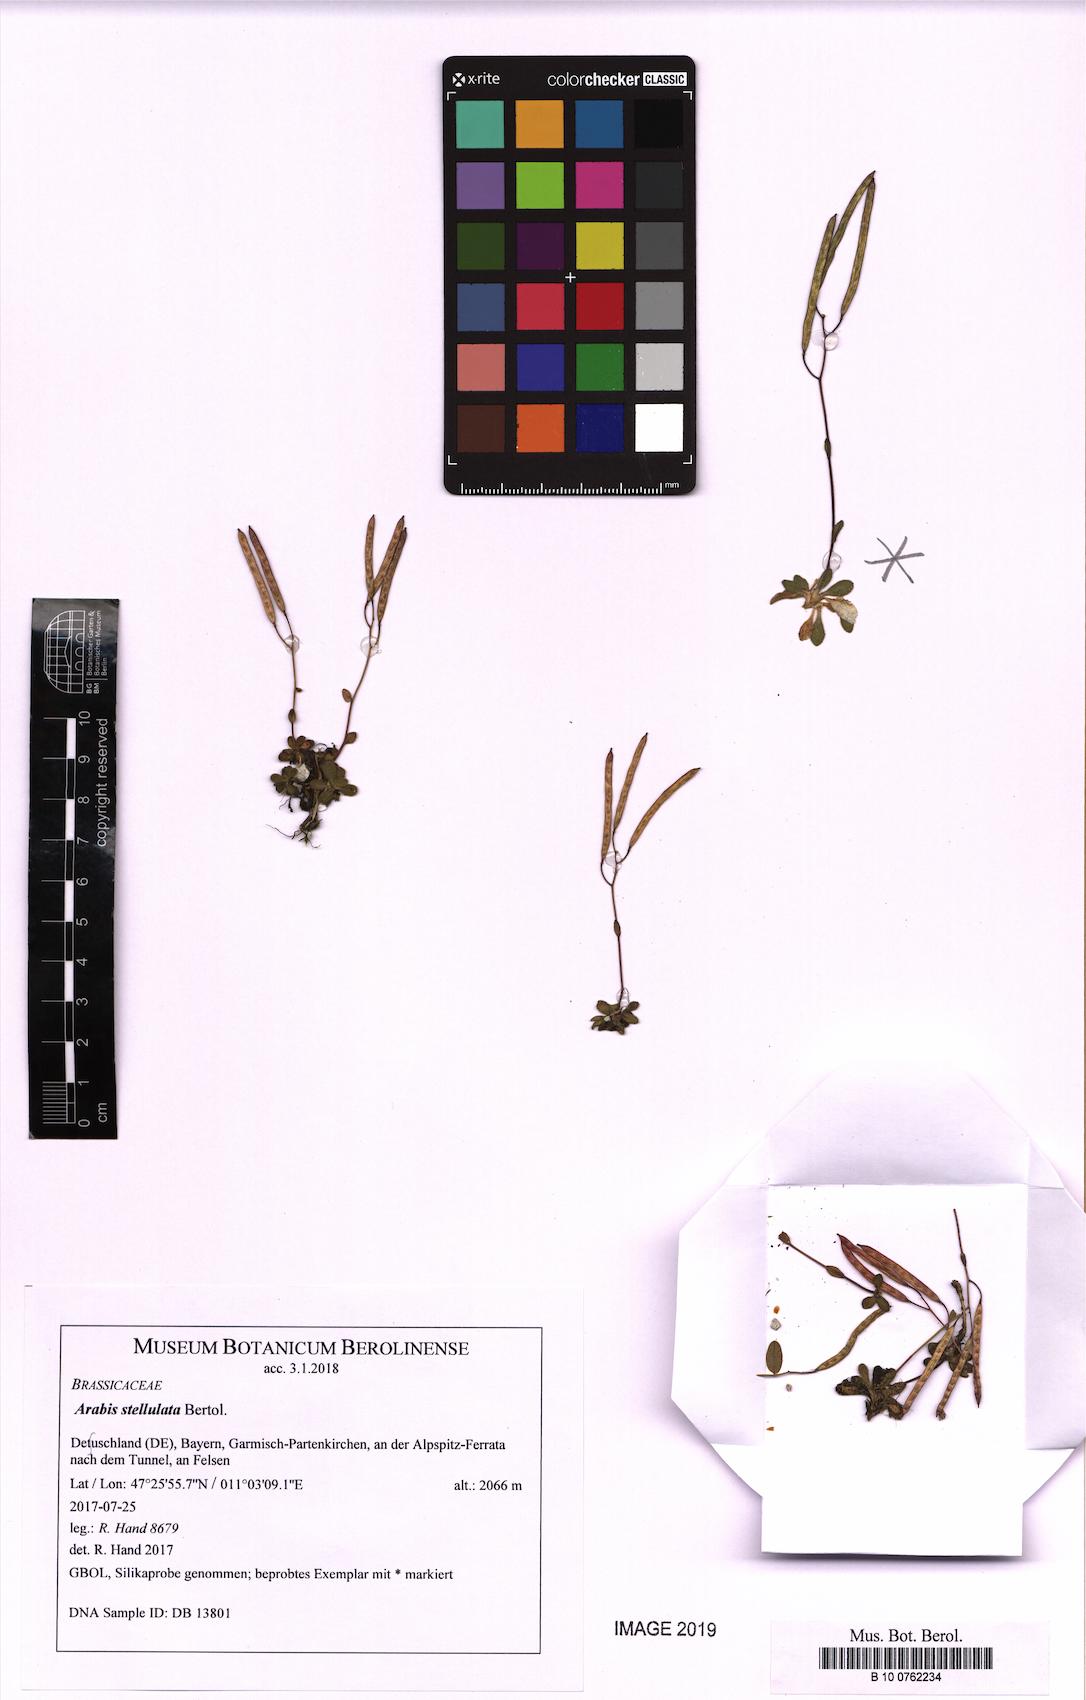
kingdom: Plantae
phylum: Tracheophyta
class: Magnoliopsida
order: Brassicales
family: Brassicaceae
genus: Arabis
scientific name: Arabis stellulata
